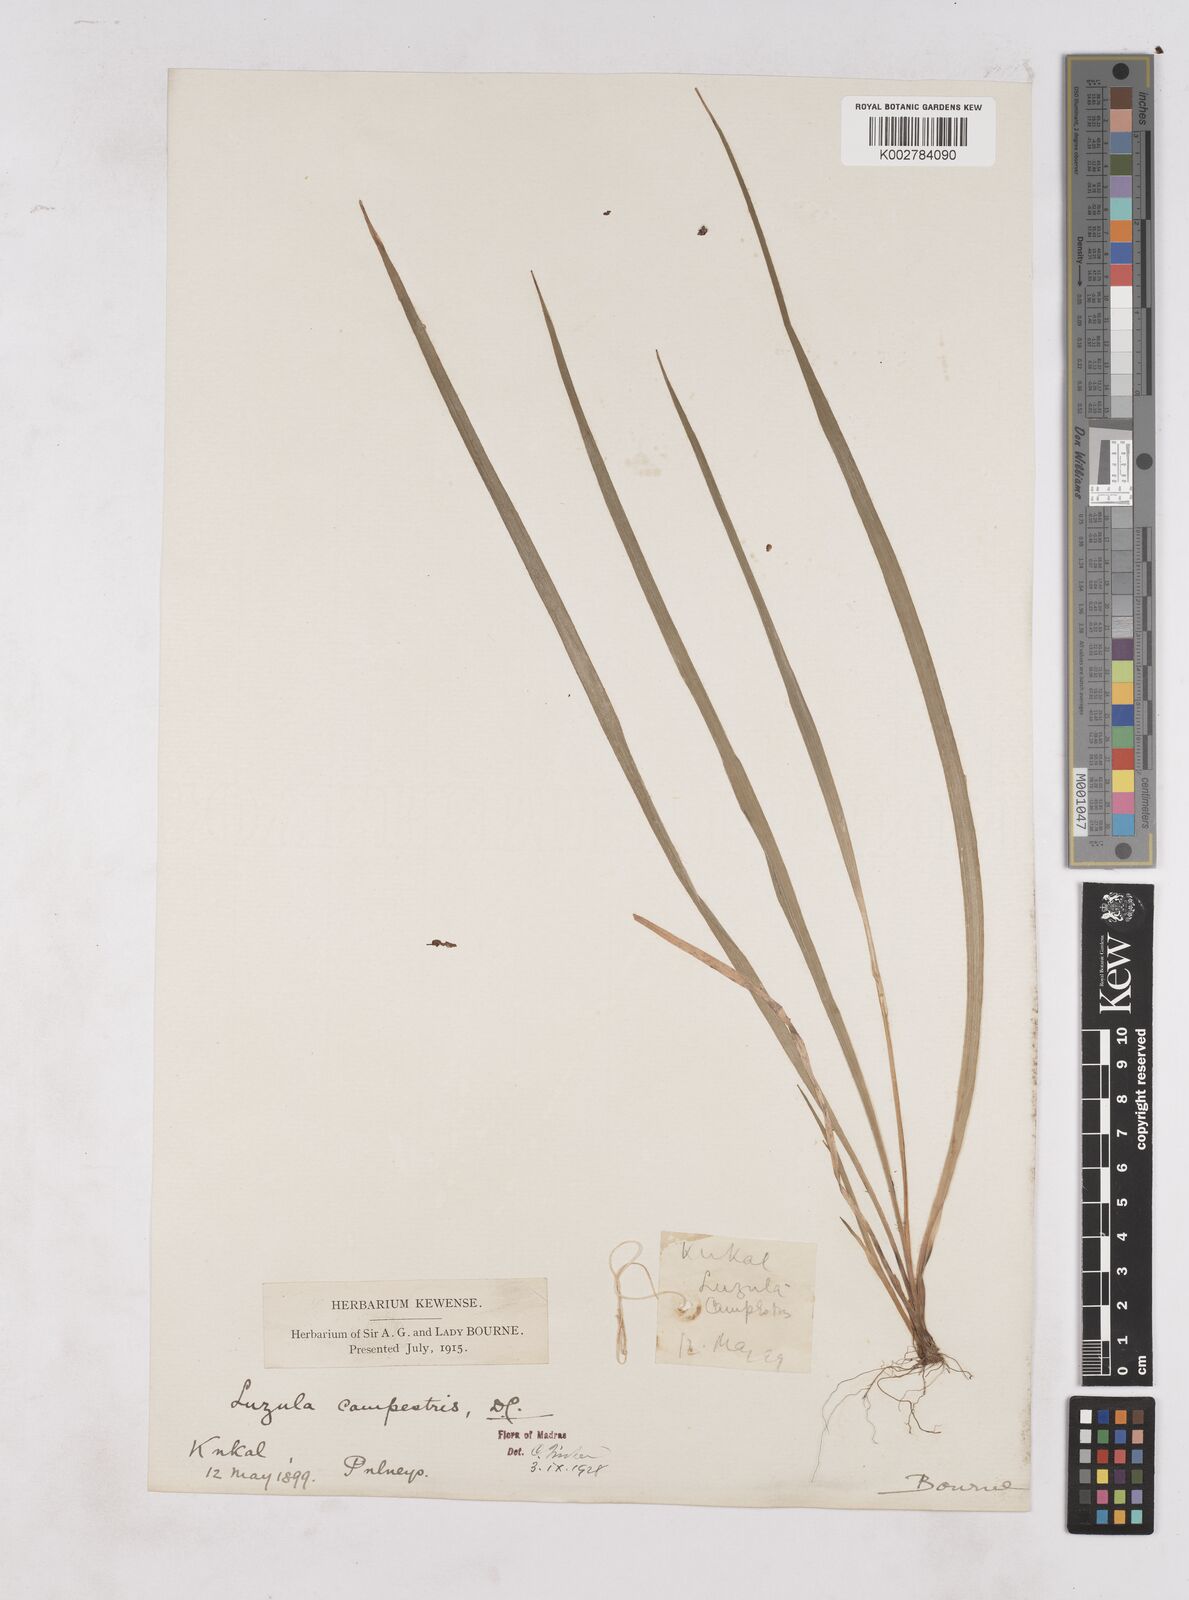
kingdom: Plantae
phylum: Tracheophyta
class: Liliopsida
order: Poales
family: Juncaceae
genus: Luzula
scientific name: Luzula campestris
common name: Field wood-rush
